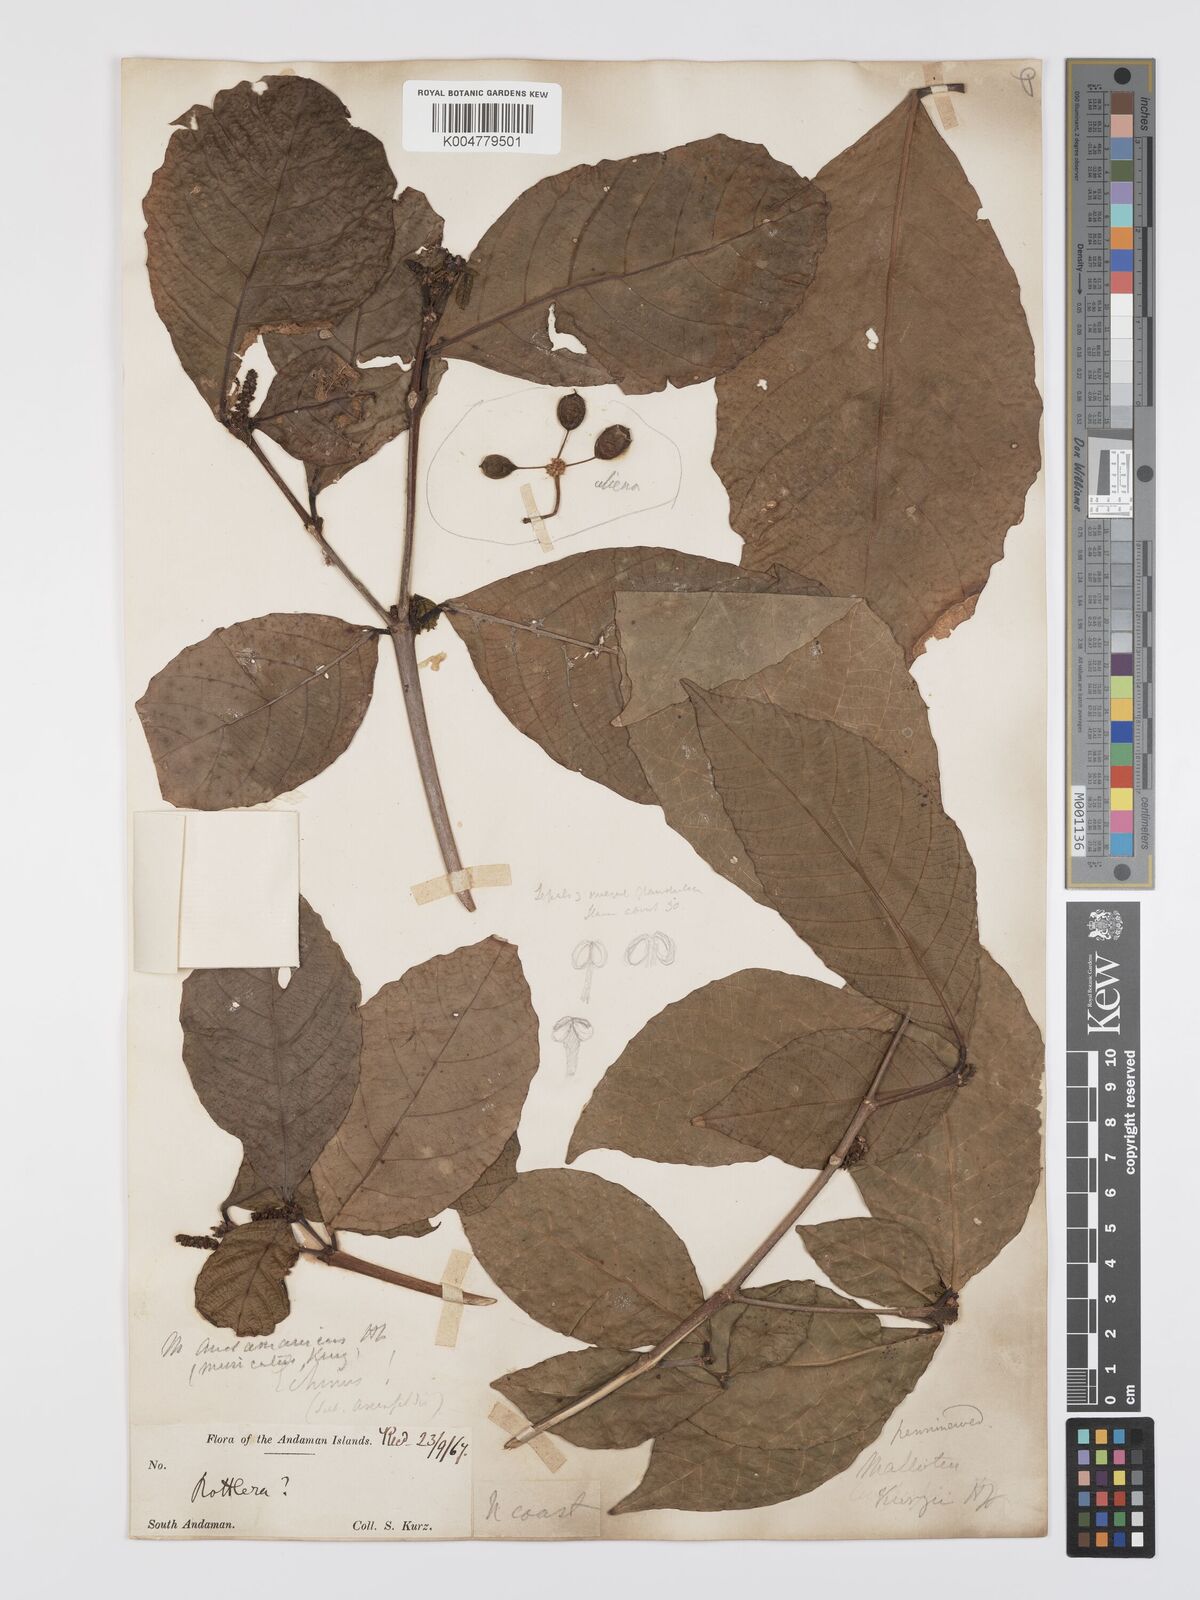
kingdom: Plantae
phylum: Tracheophyta
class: Magnoliopsida
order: Malpighiales
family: Euphorbiaceae
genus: Mallotus
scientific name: Mallotus resinosus
